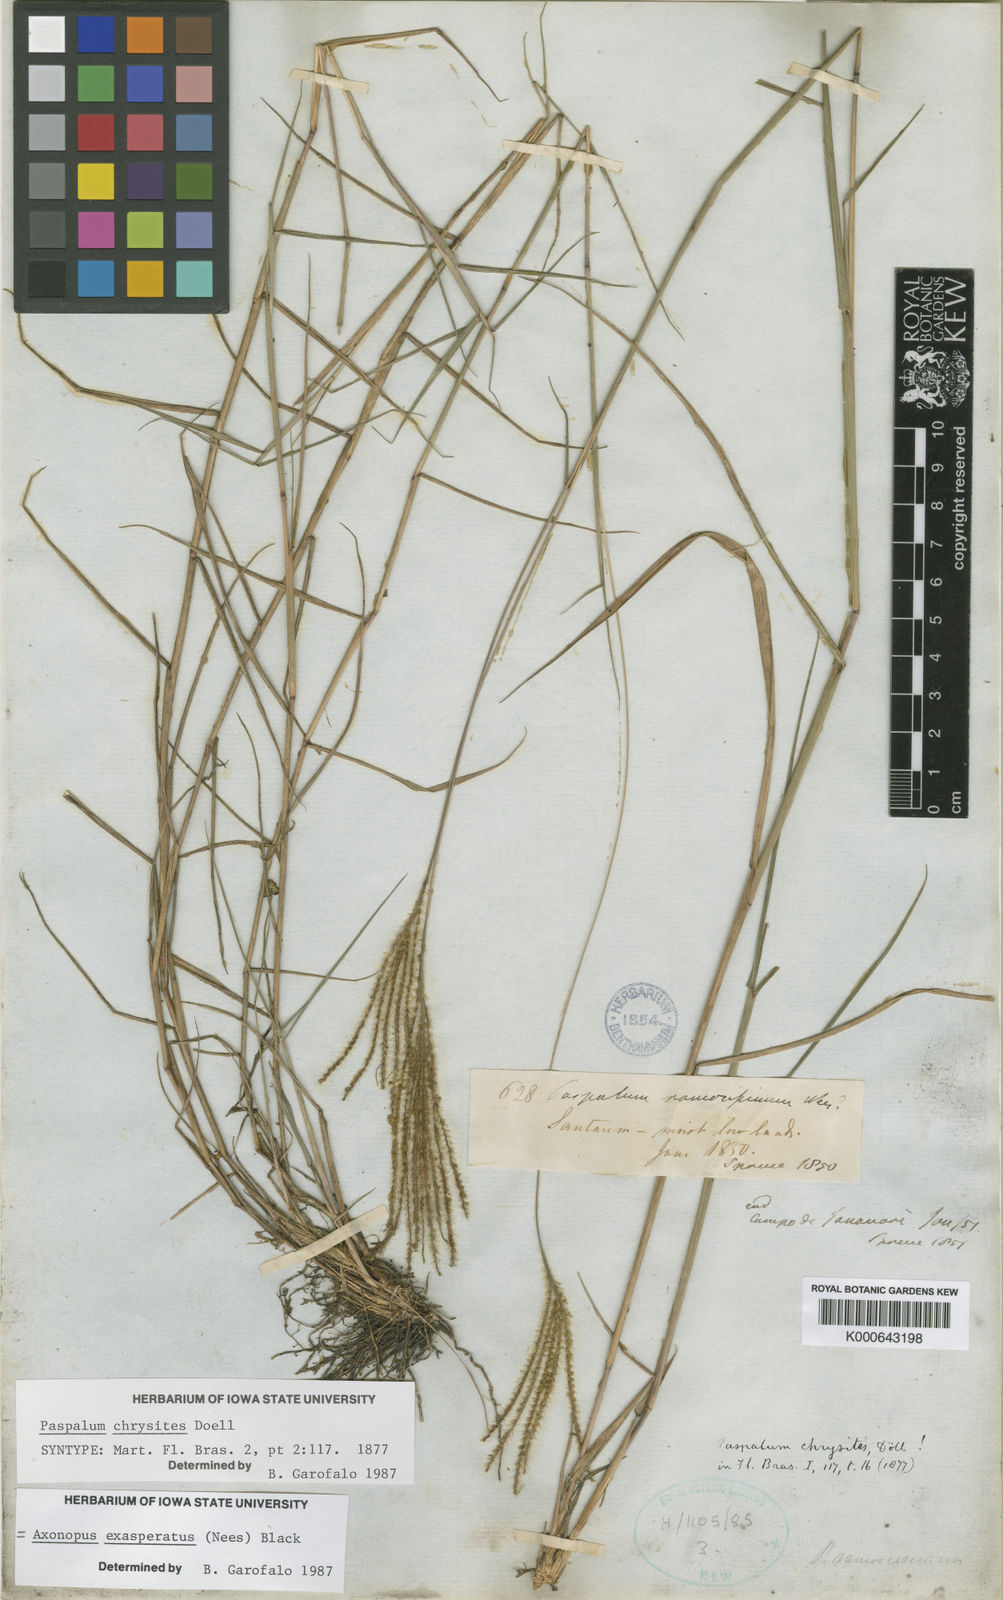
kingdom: Plantae
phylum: Tracheophyta
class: Liliopsida
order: Poales
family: Poaceae
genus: Axonopus
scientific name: Axonopus aureus
